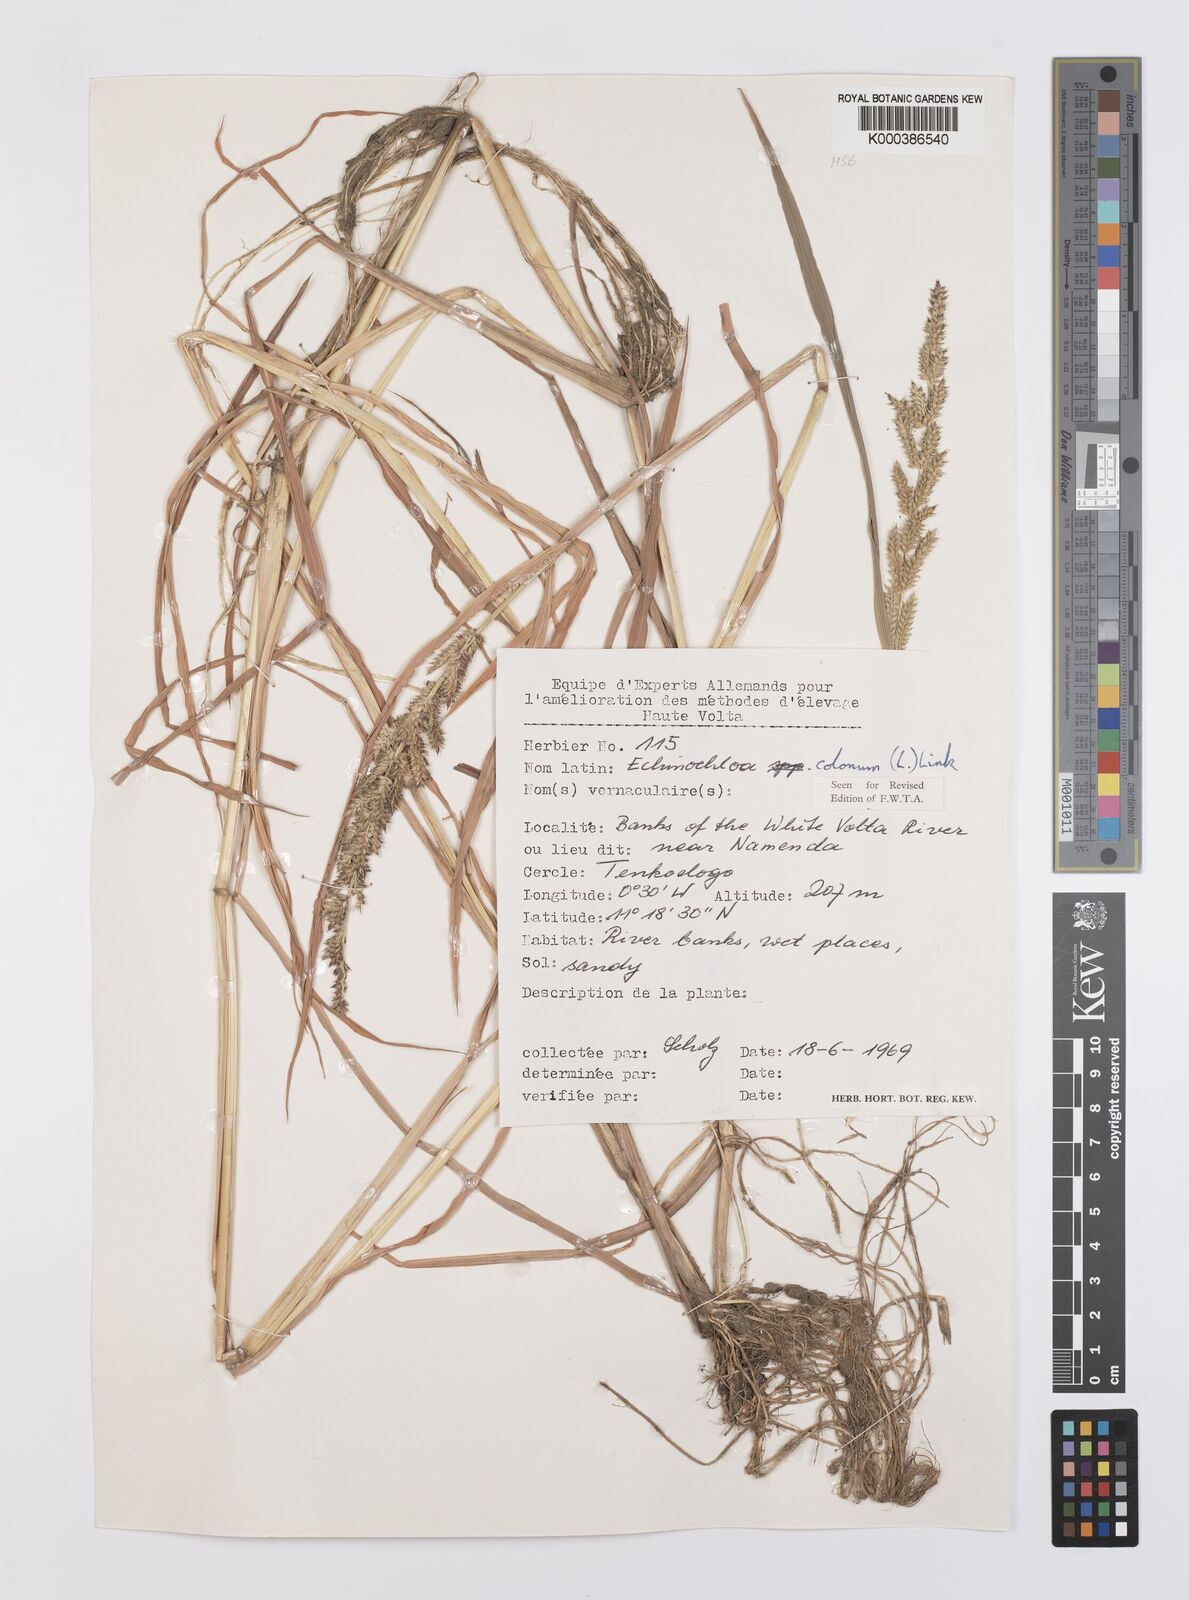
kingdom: Plantae
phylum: Tracheophyta
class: Liliopsida
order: Poales
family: Poaceae
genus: Echinochloa
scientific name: Echinochloa colonum
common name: Jungle rice
